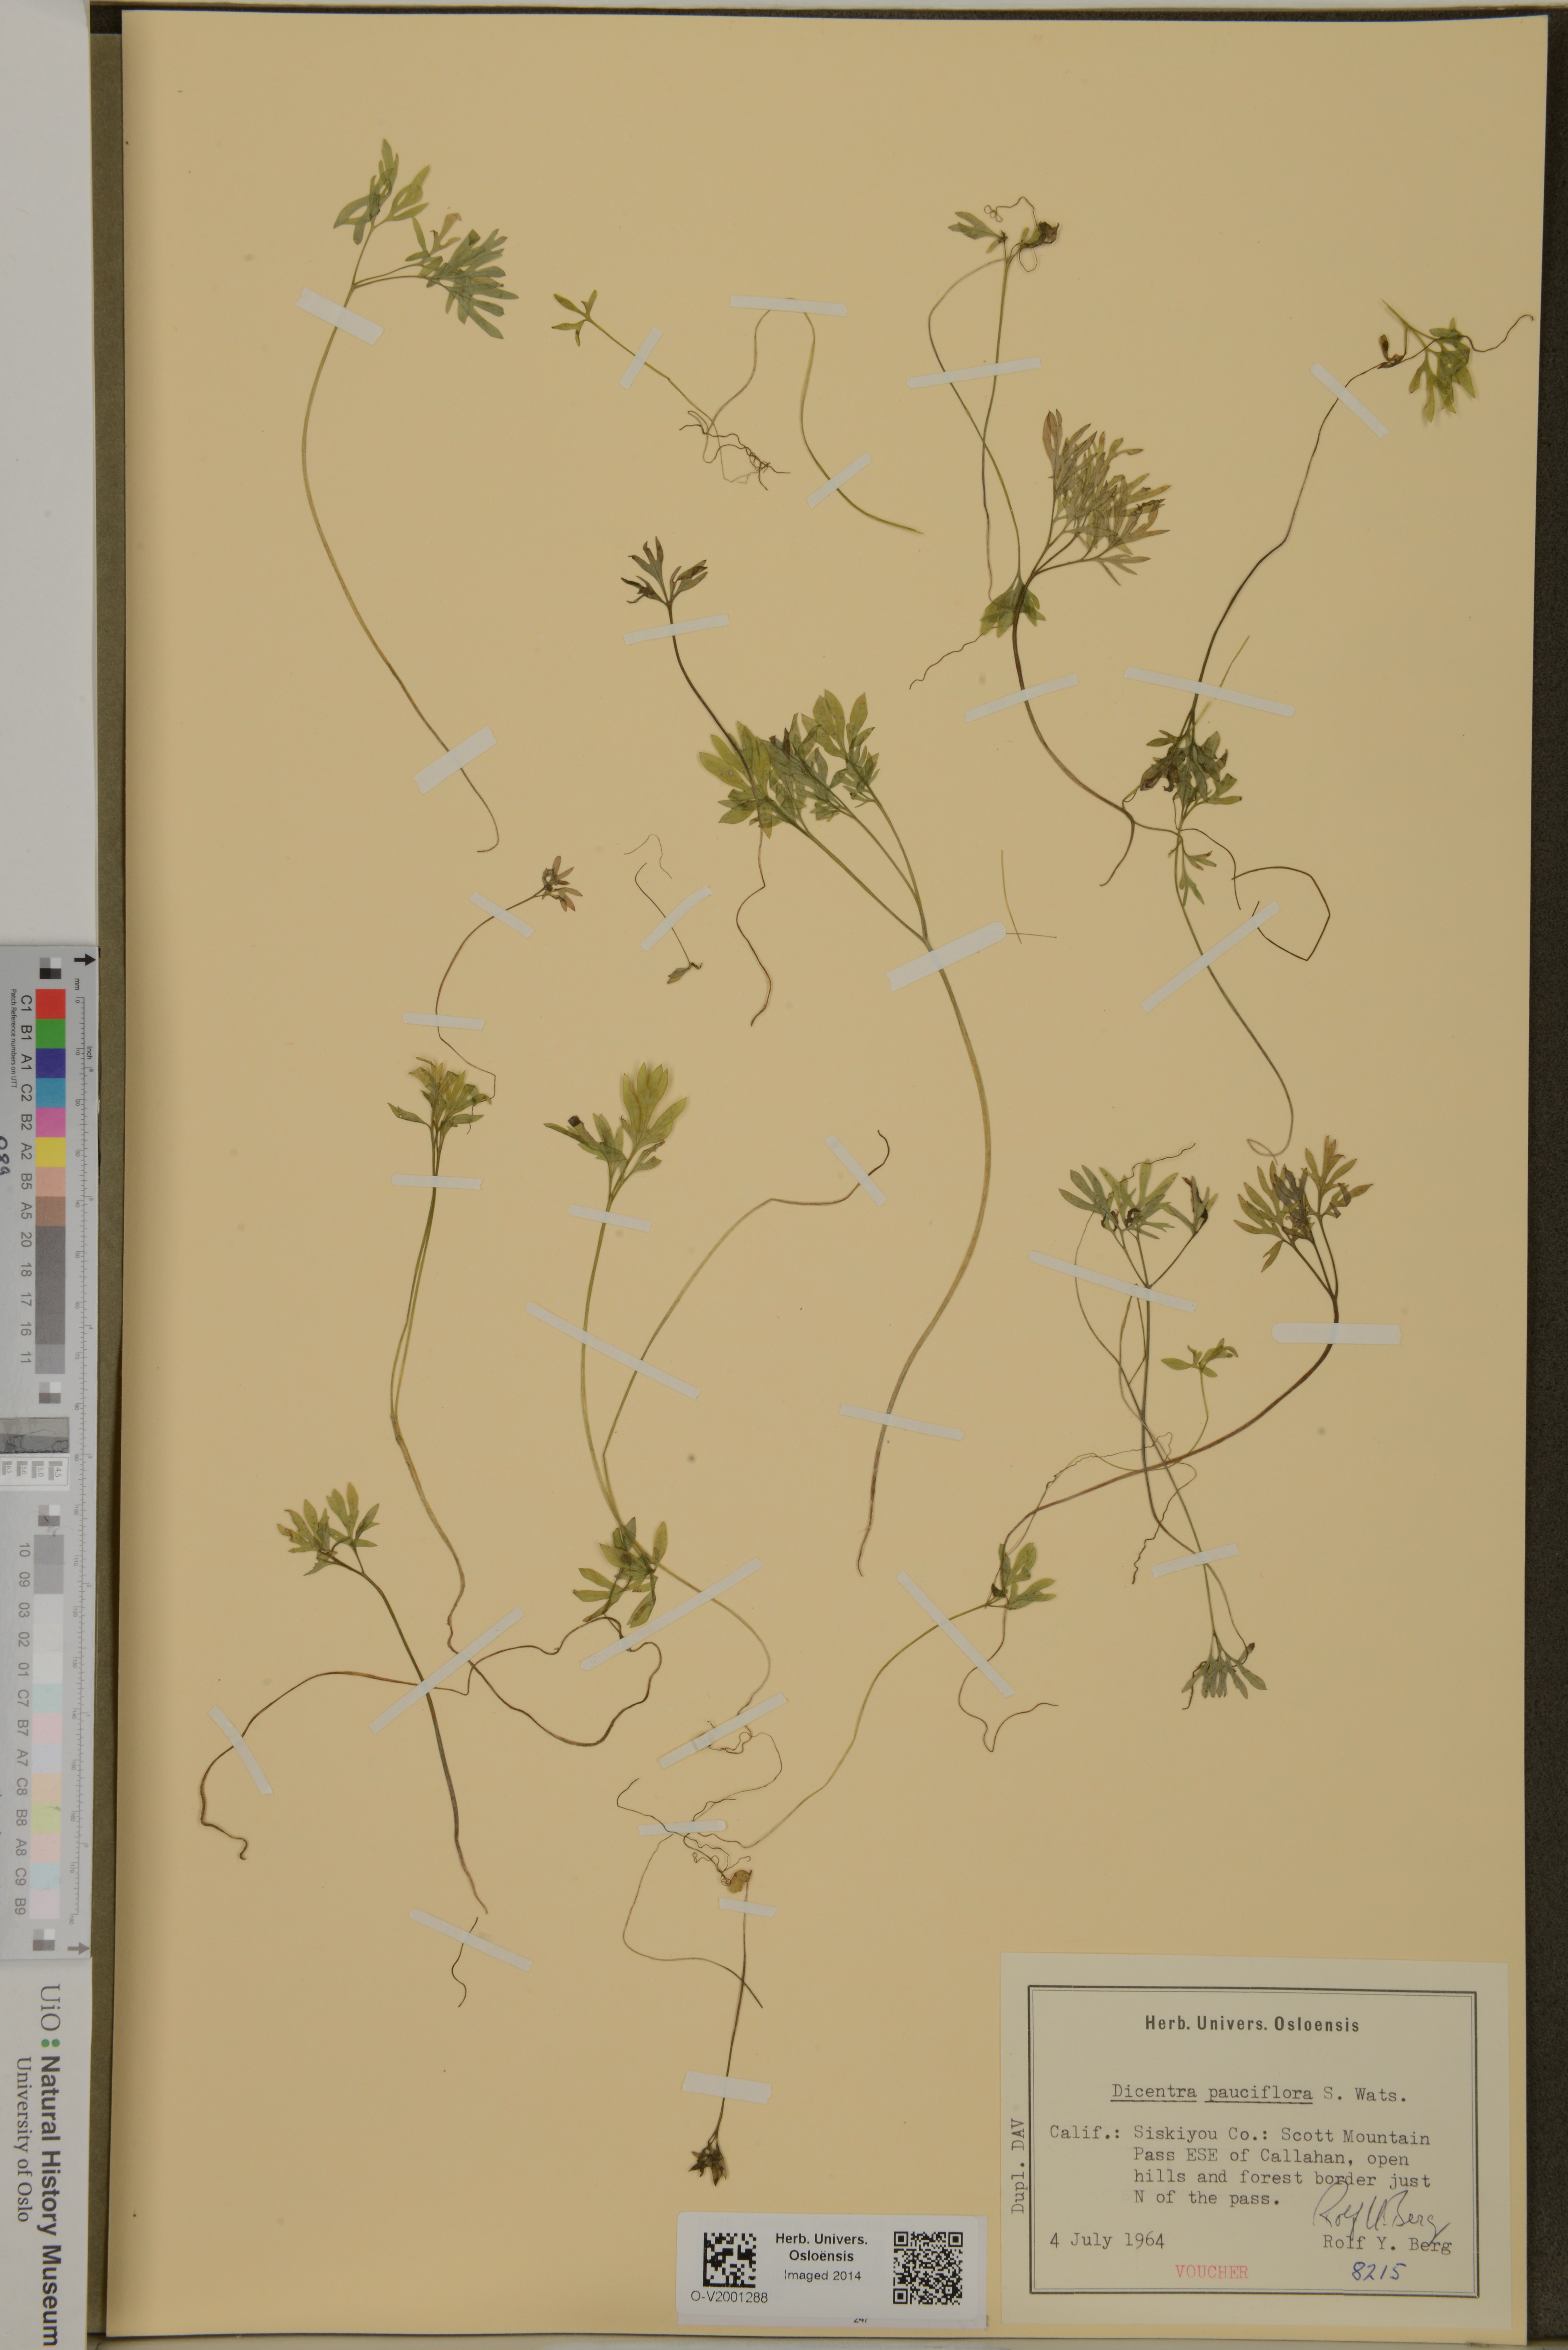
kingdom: Plantae
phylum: Tracheophyta
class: Magnoliopsida
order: Ranunculales
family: Papaveraceae
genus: Dicentra
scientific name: Dicentra pauciflora
